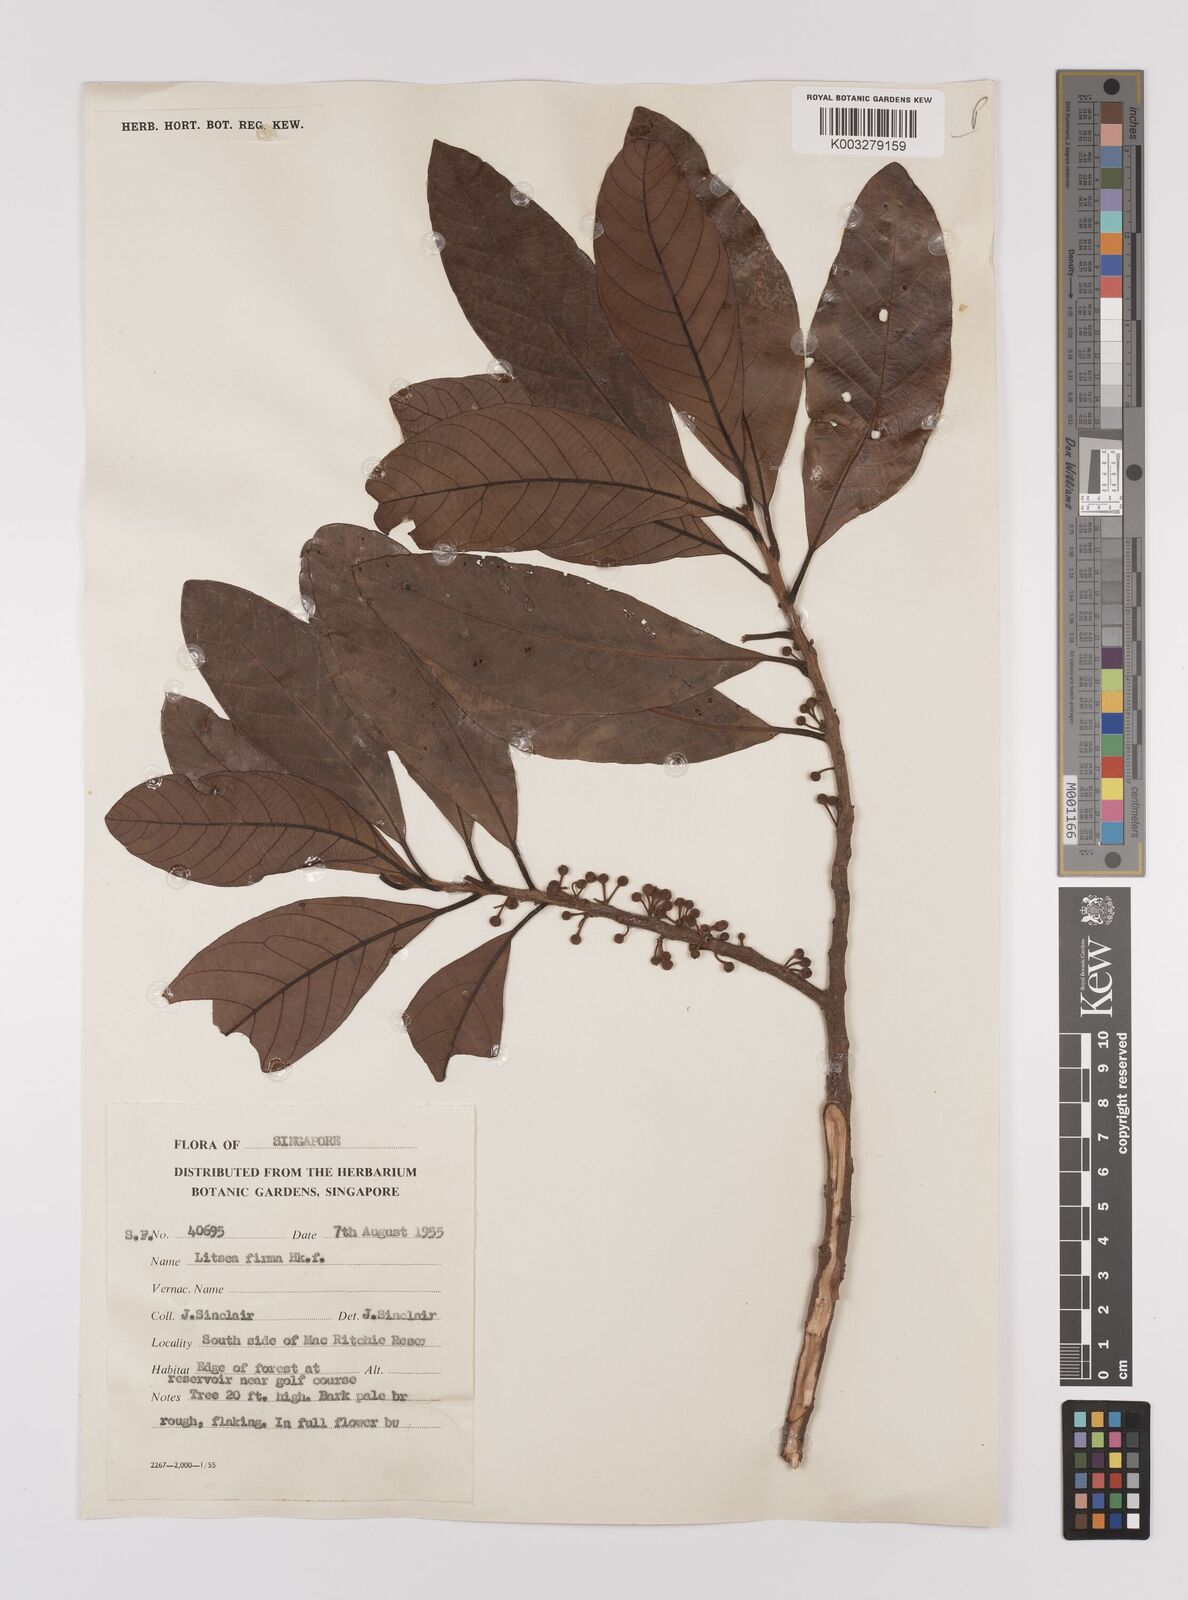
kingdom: Plantae
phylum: Tracheophyta
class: Magnoliopsida
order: Laurales
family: Lauraceae
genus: Litsea
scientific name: Litsea firma
